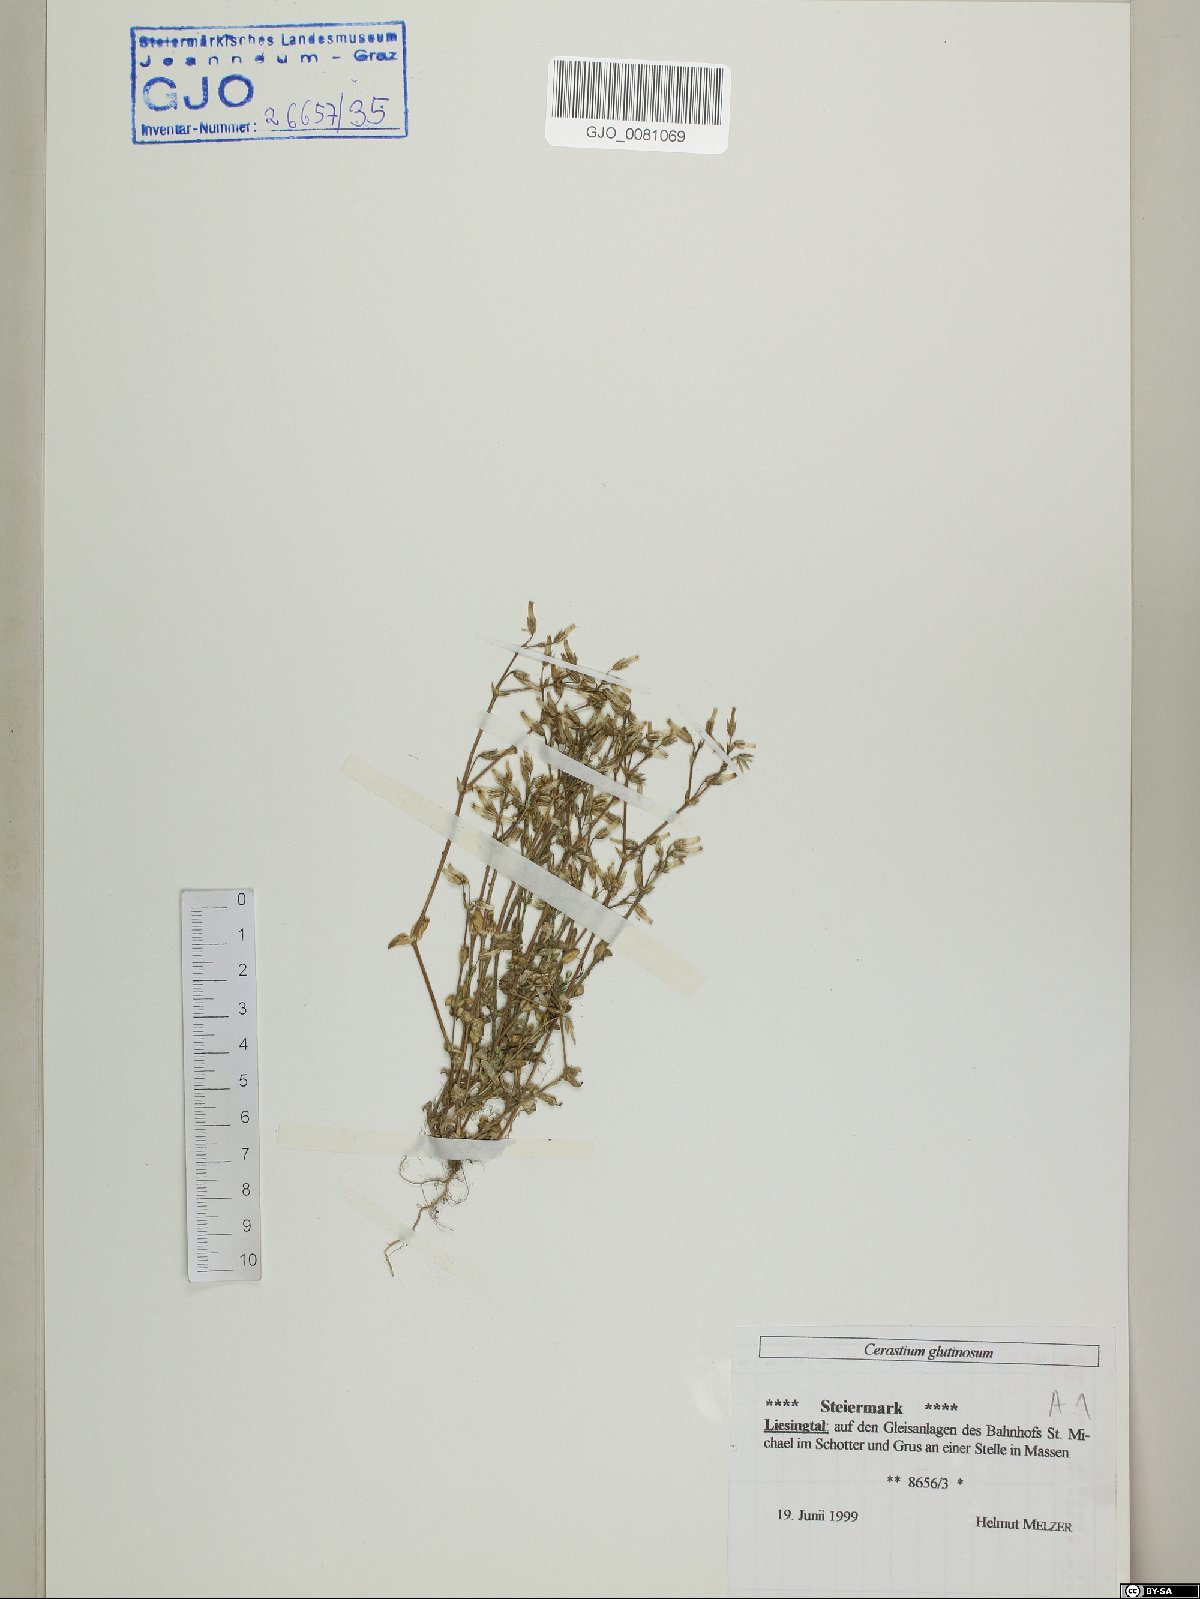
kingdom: Plantae
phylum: Tracheophyta
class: Magnoliopsida
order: Caryophyllales
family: Caryophyllaceae
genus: Cerastium
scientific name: Cerastium glutinosum
